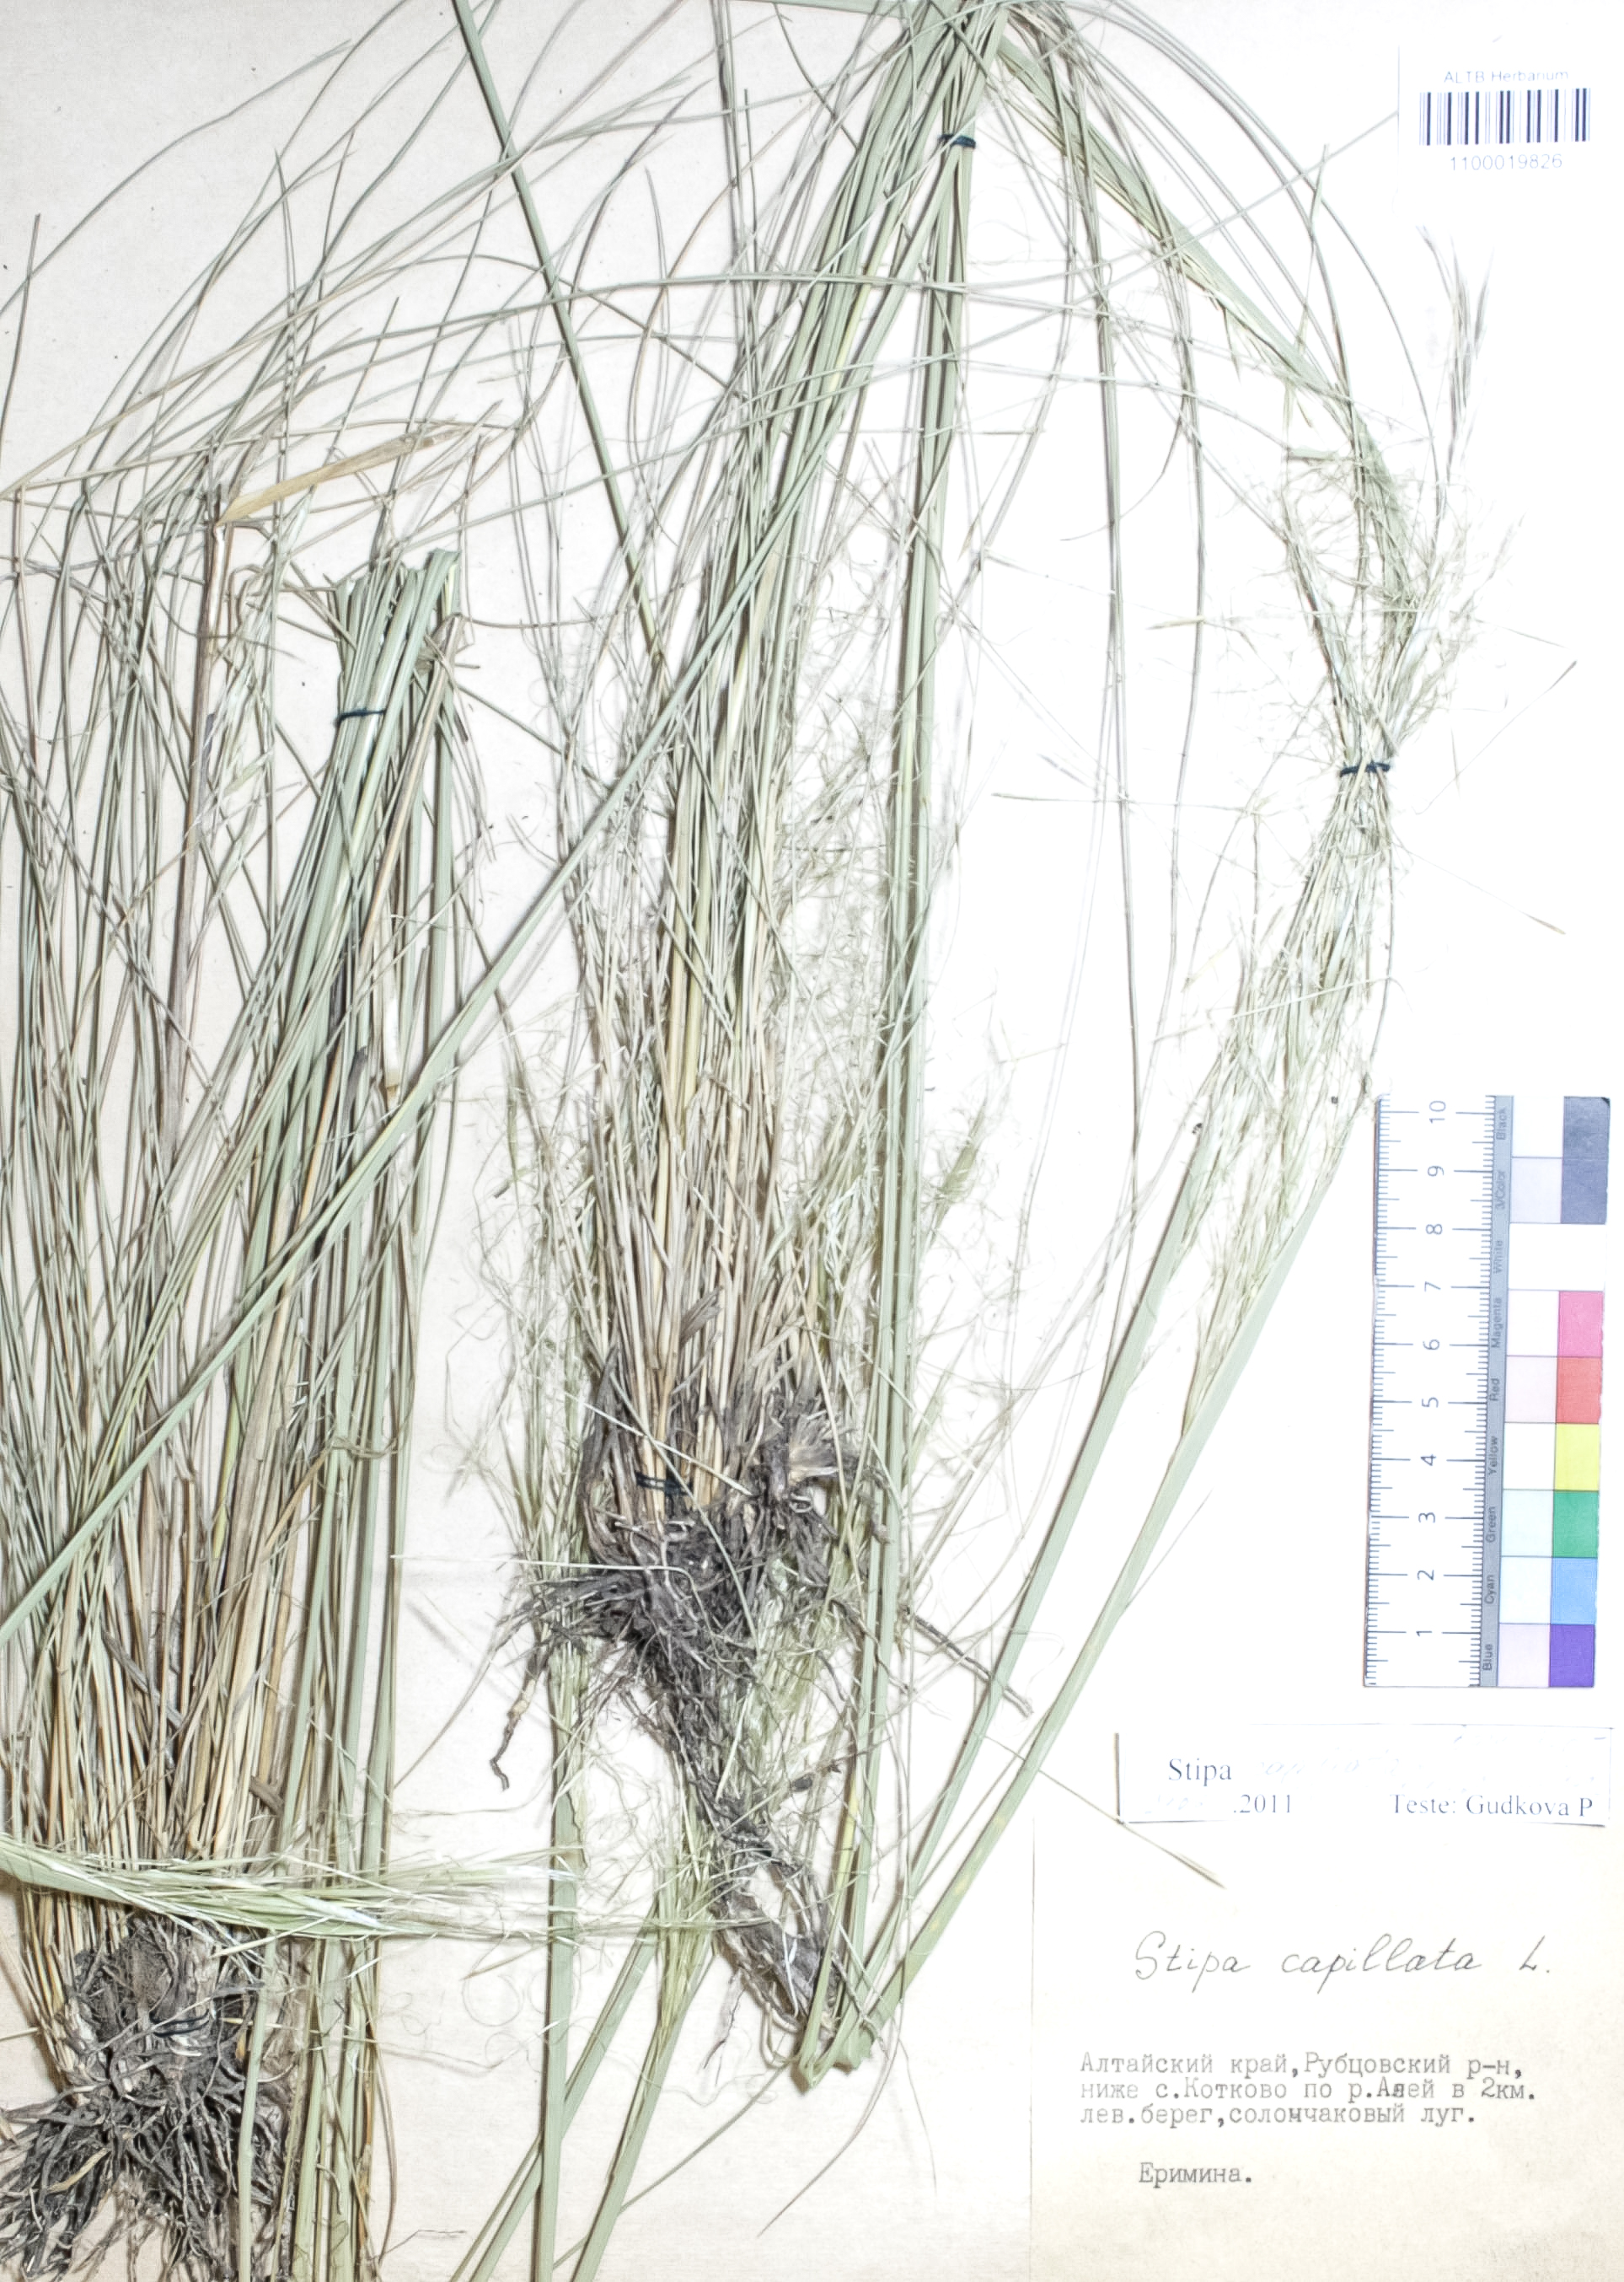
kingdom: Plantae
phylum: Tracheophyta
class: Liliopsida
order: Poales
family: Poaceae
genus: Stipa
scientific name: Stipa capillata
